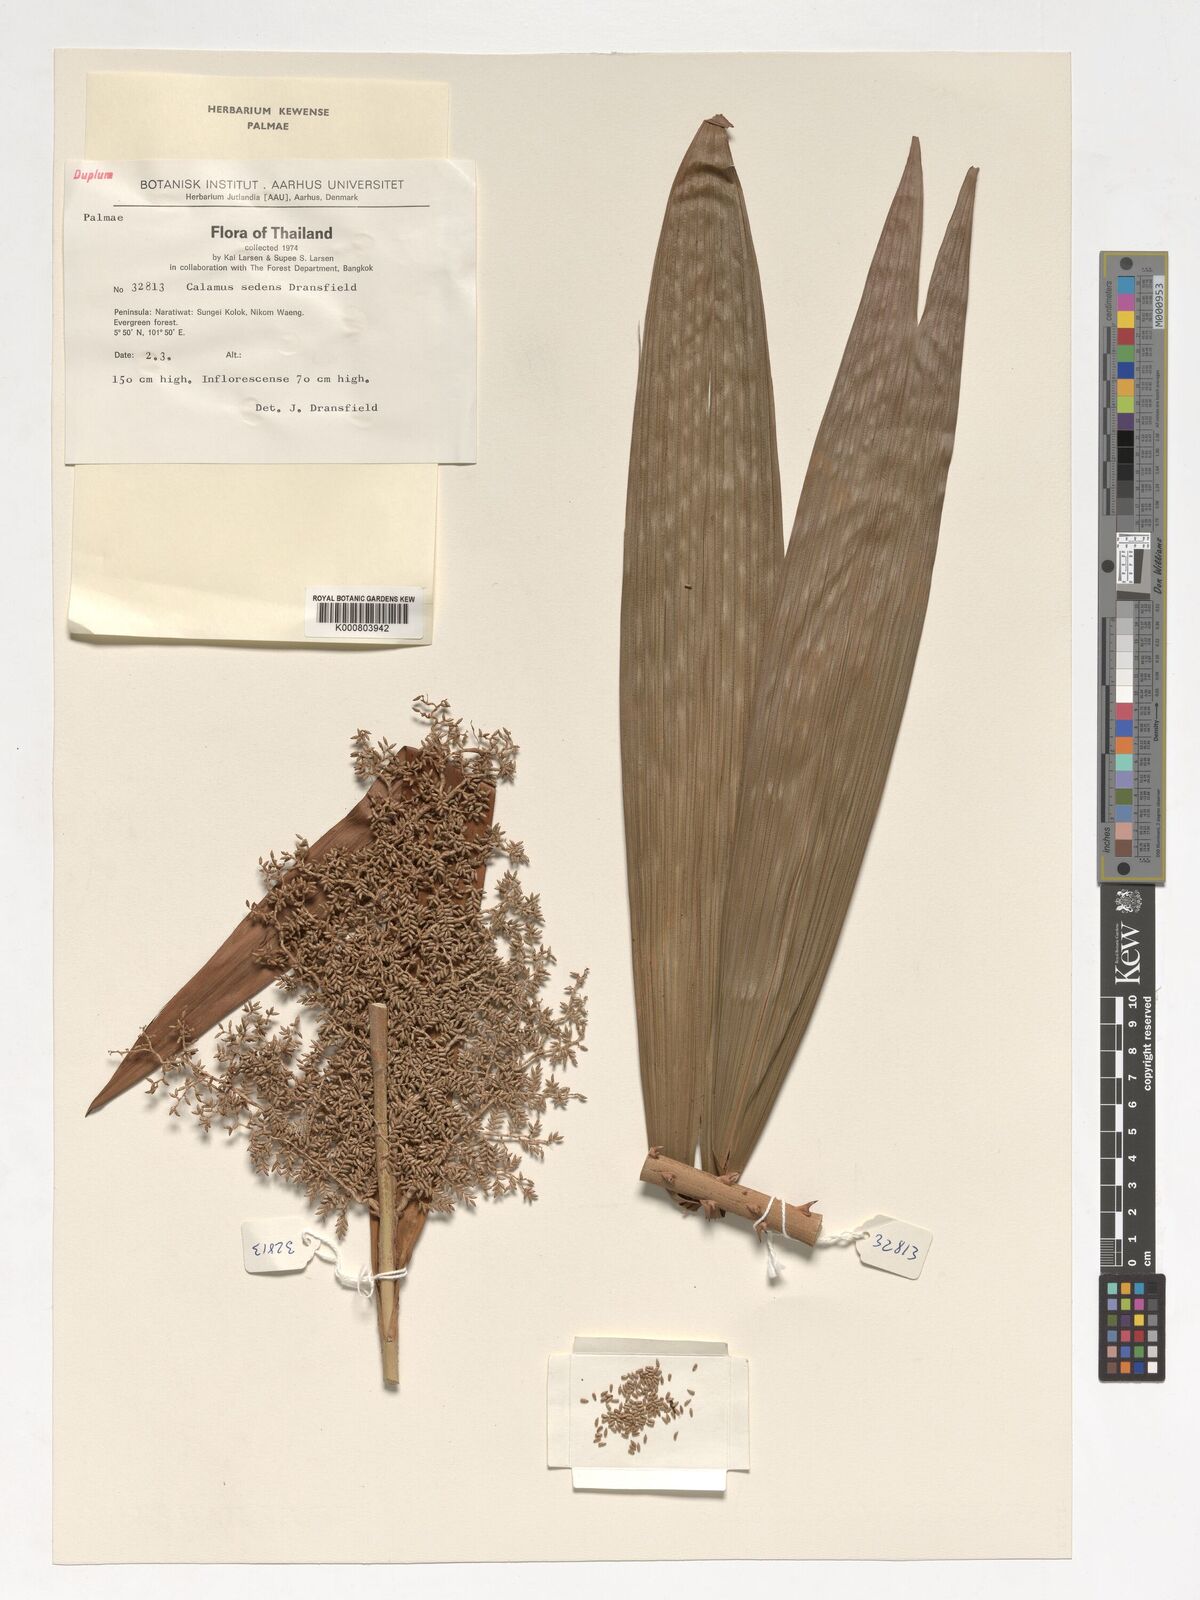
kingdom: Plantae
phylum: Tracheophyta
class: Liliopsida
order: Arecales
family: Arecaceae
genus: Calamus
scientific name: Calamus sedens
